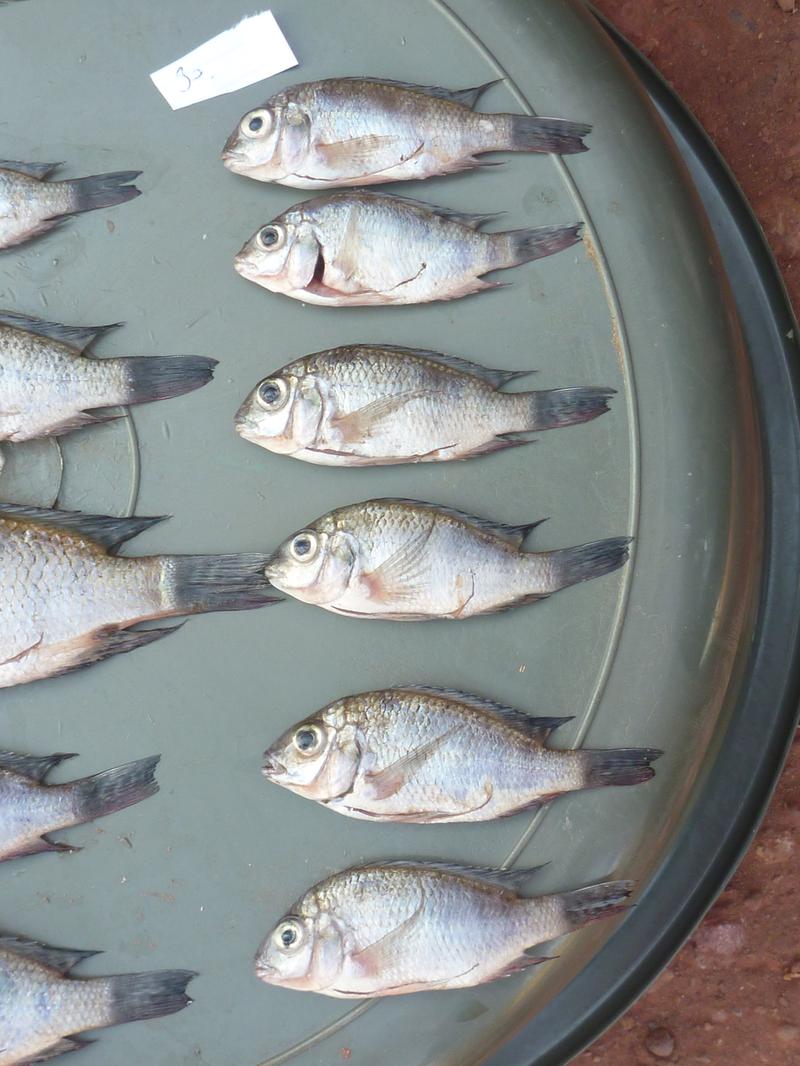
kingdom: Animalia
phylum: Chordata
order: Perciformes
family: Cichlidae
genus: Oreochromis
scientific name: Oreochromis korogwe
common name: Korogwe tilapia
